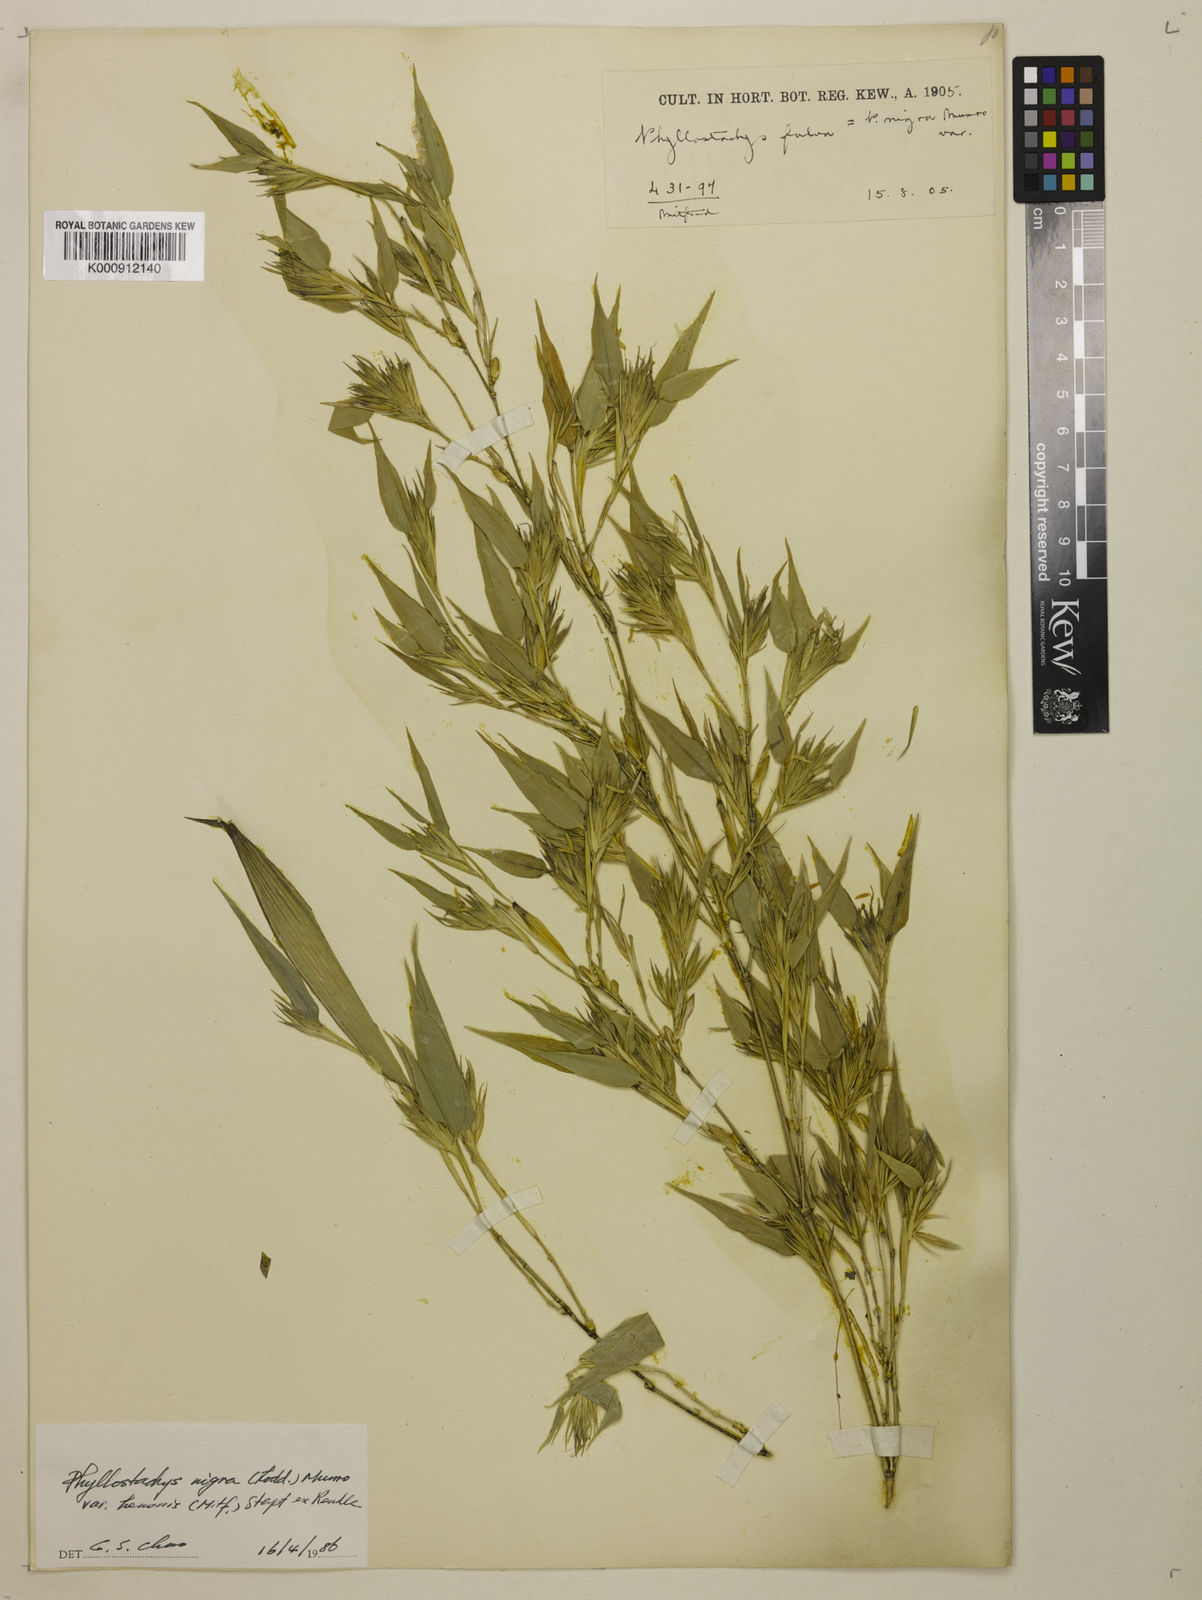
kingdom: Plantae
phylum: Tracheophyta
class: Liliopsida
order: Poales
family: Poaceae
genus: Phyllostachys
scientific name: Phyllostachys nigra
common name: Black bamboo
